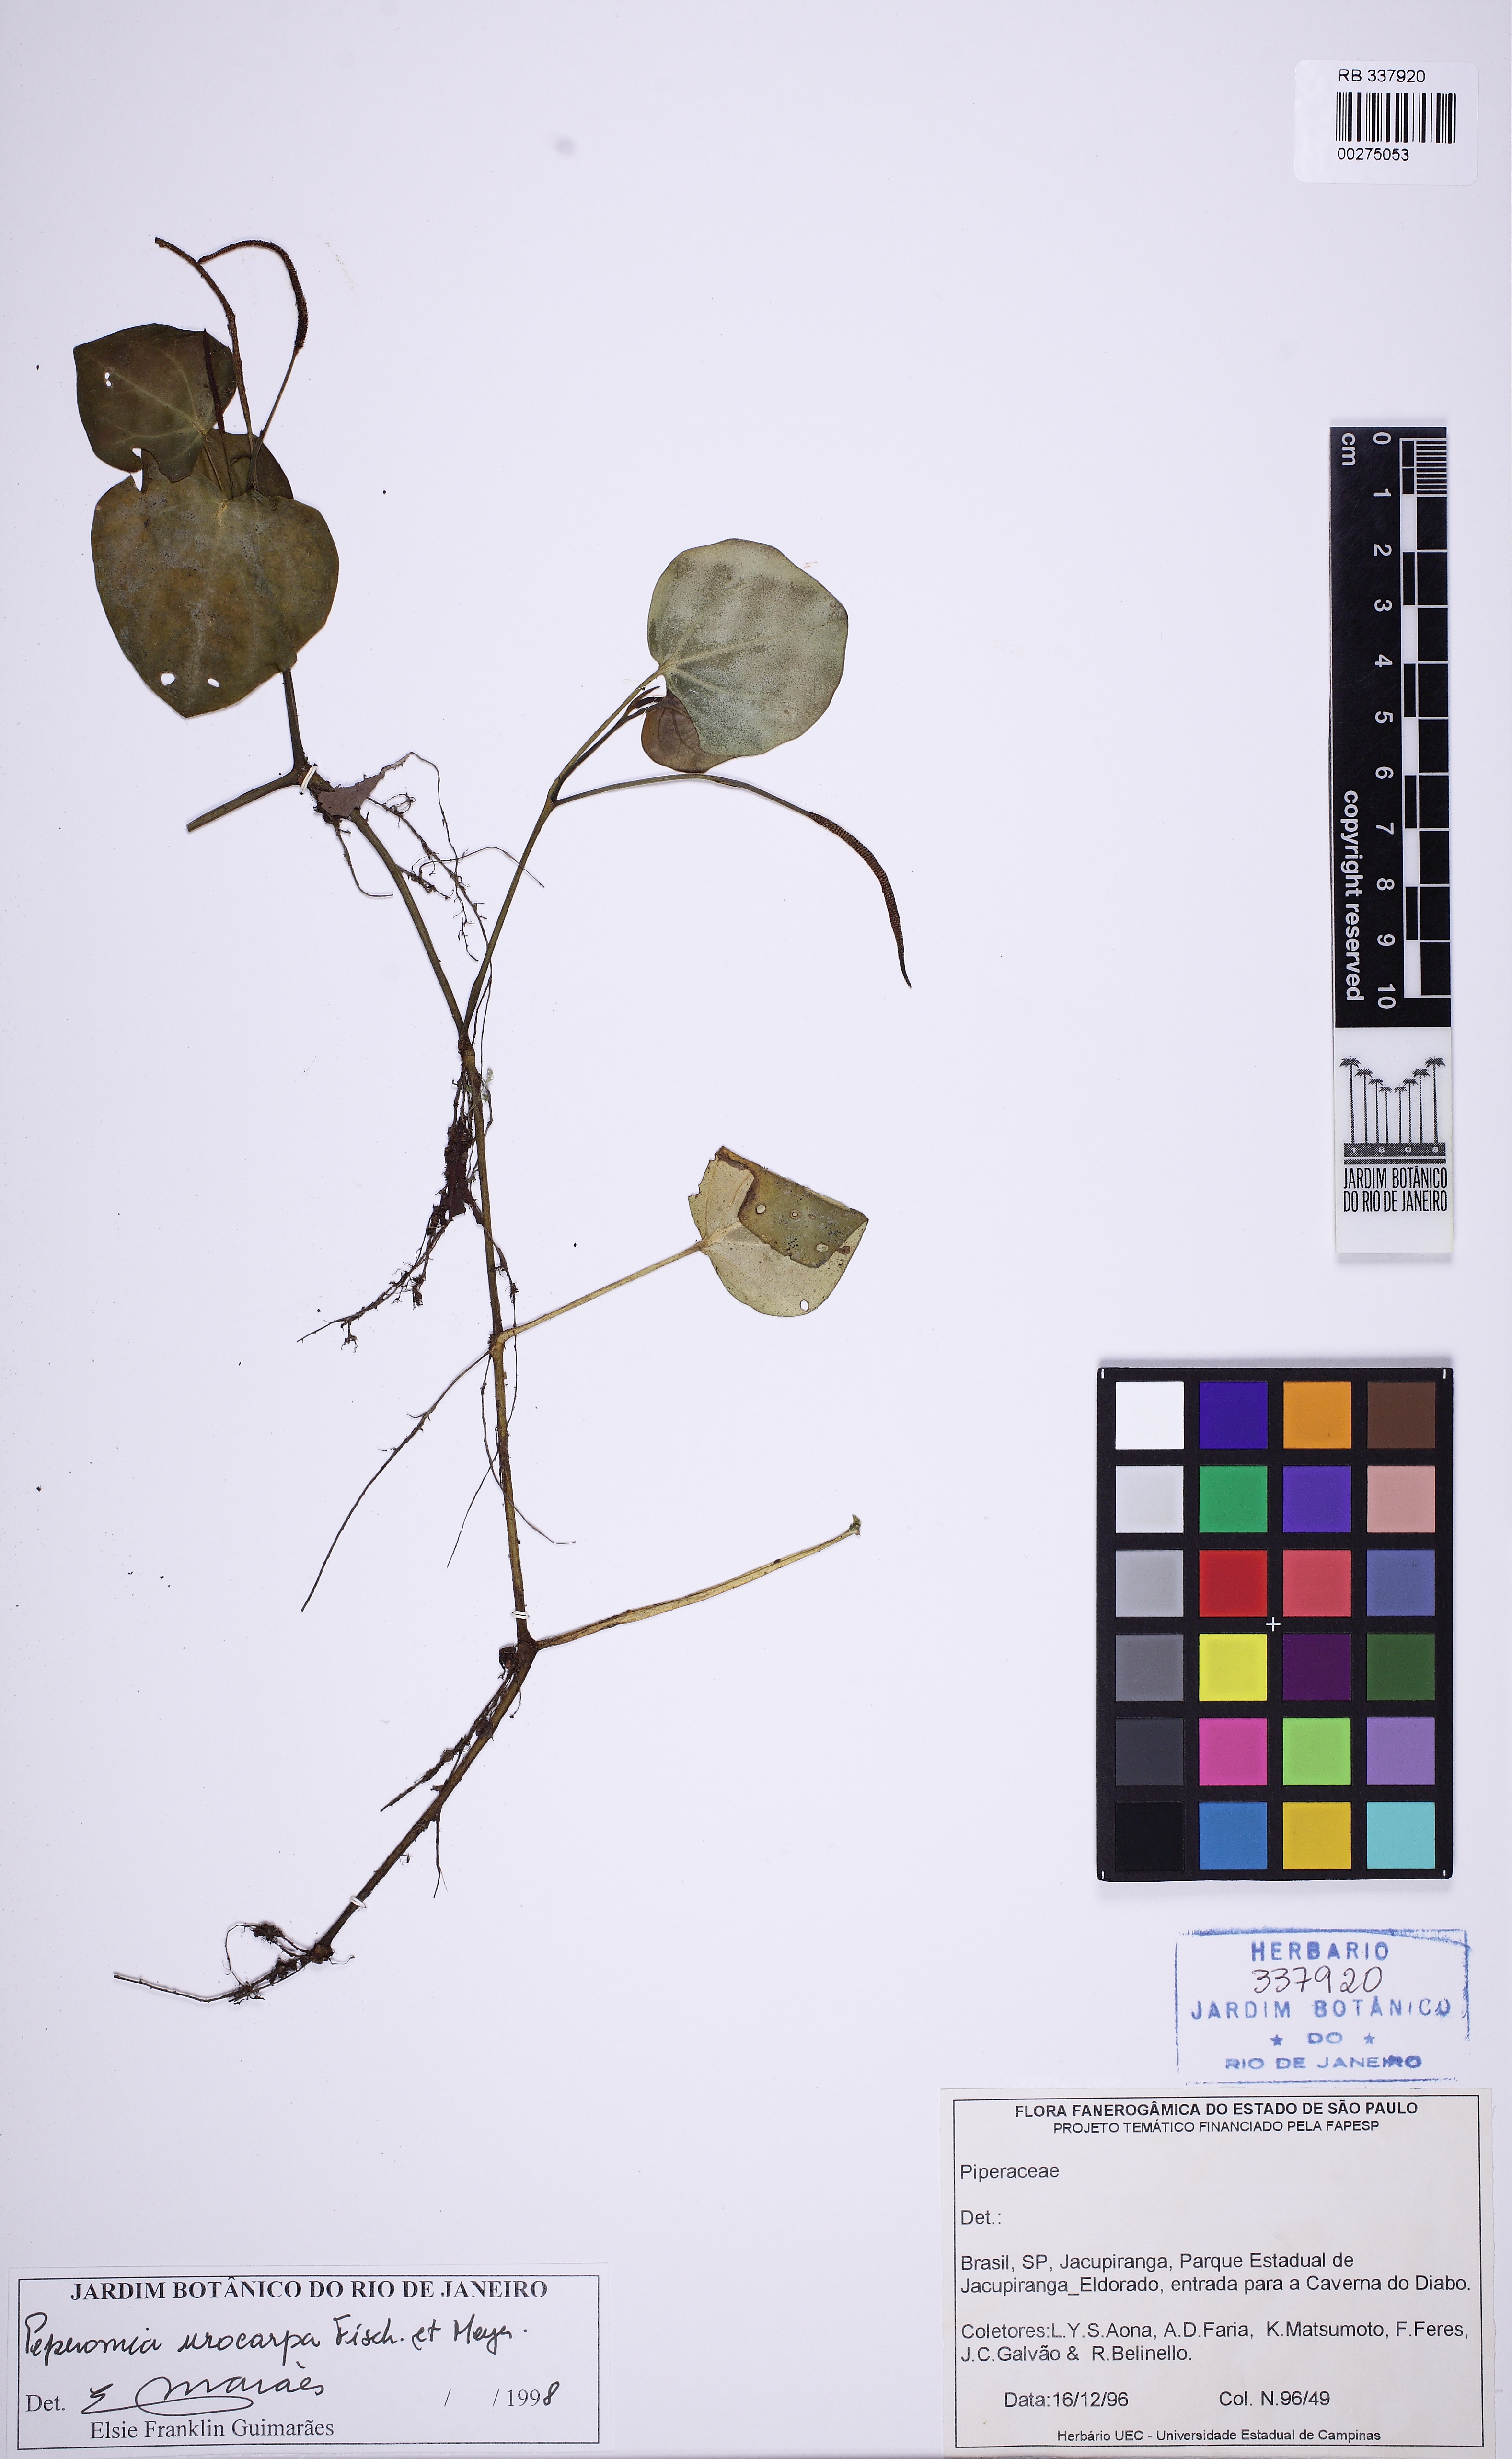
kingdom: Plantae
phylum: Tracheophyta
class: Magnoliopsida
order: Piperales
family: Piperaceae
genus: Peperomia
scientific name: Peperomia urocarpa
